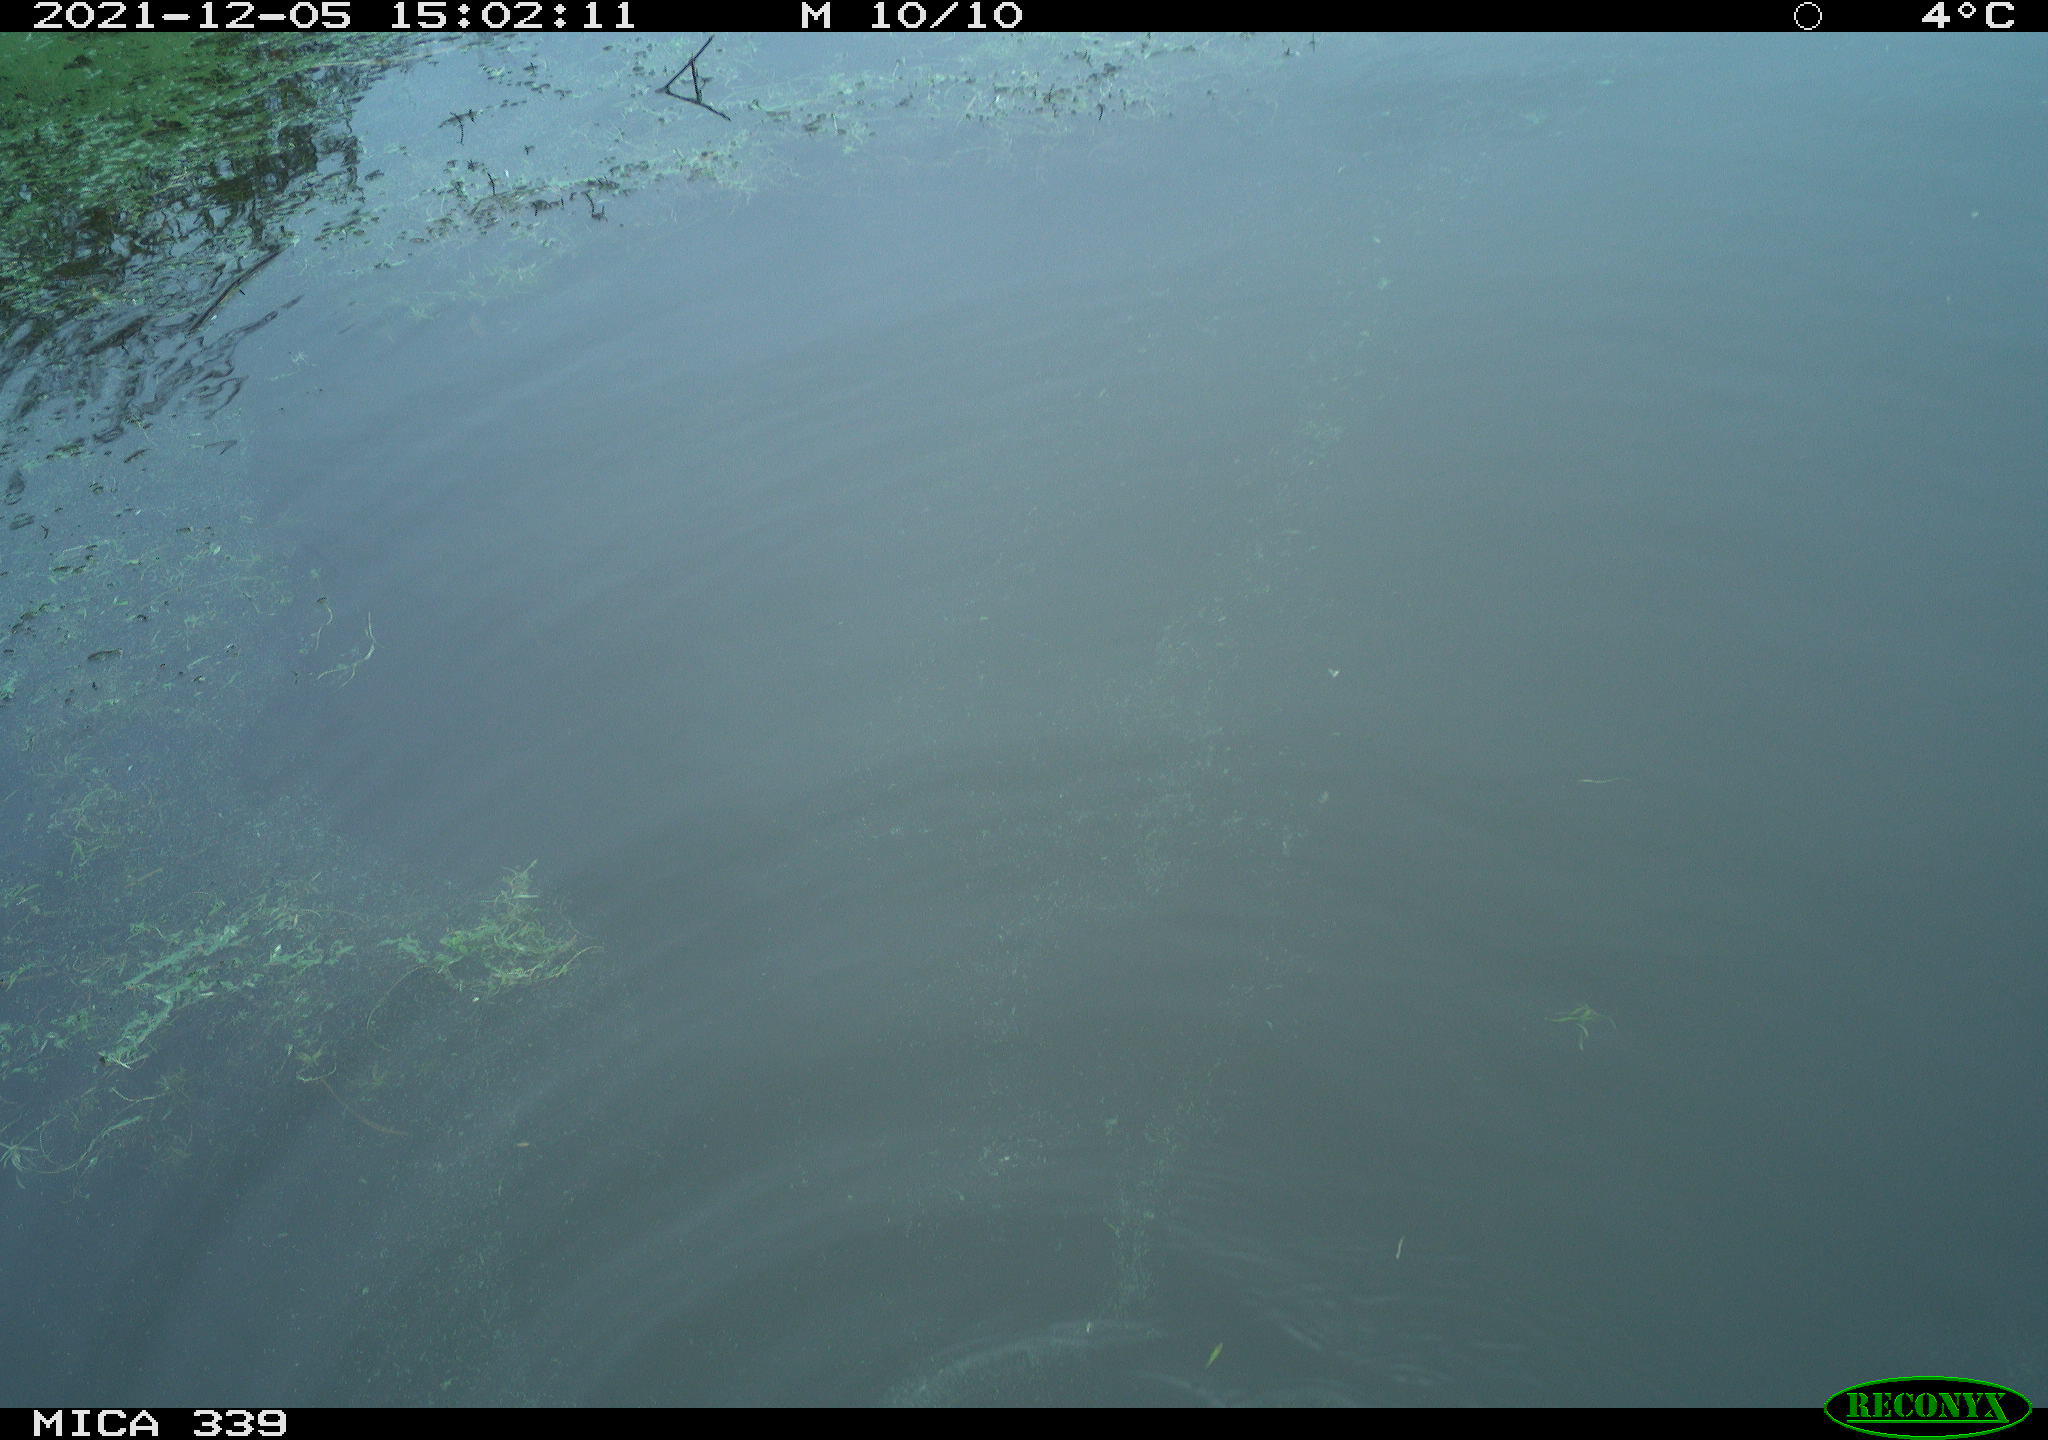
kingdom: Animalia
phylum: Chordata
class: Aves
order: Gruiformes
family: Rallidae
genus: Fulica
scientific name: Fulica atra
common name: Eurasian coot
